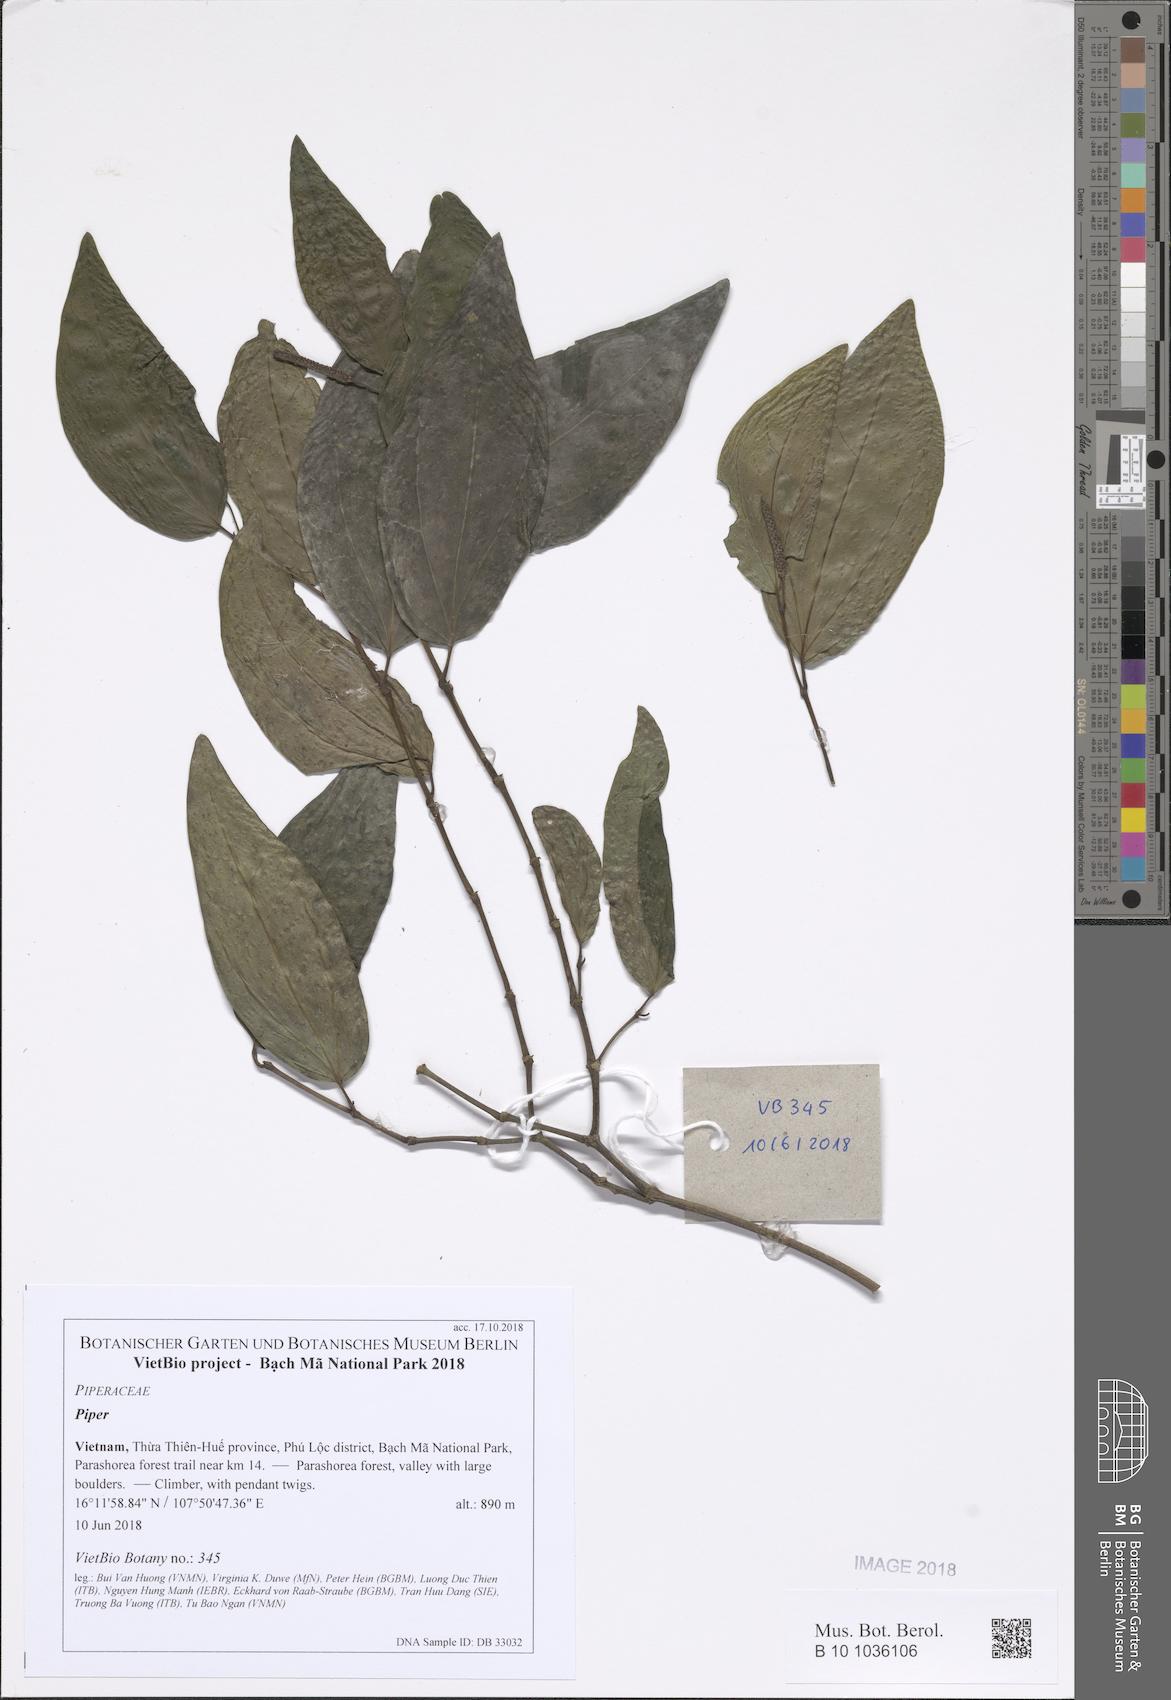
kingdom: Plantae
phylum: Tracheophyta
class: Magnoliopsida
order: Piperales
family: Piperaceae
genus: Piper
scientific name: Piper
